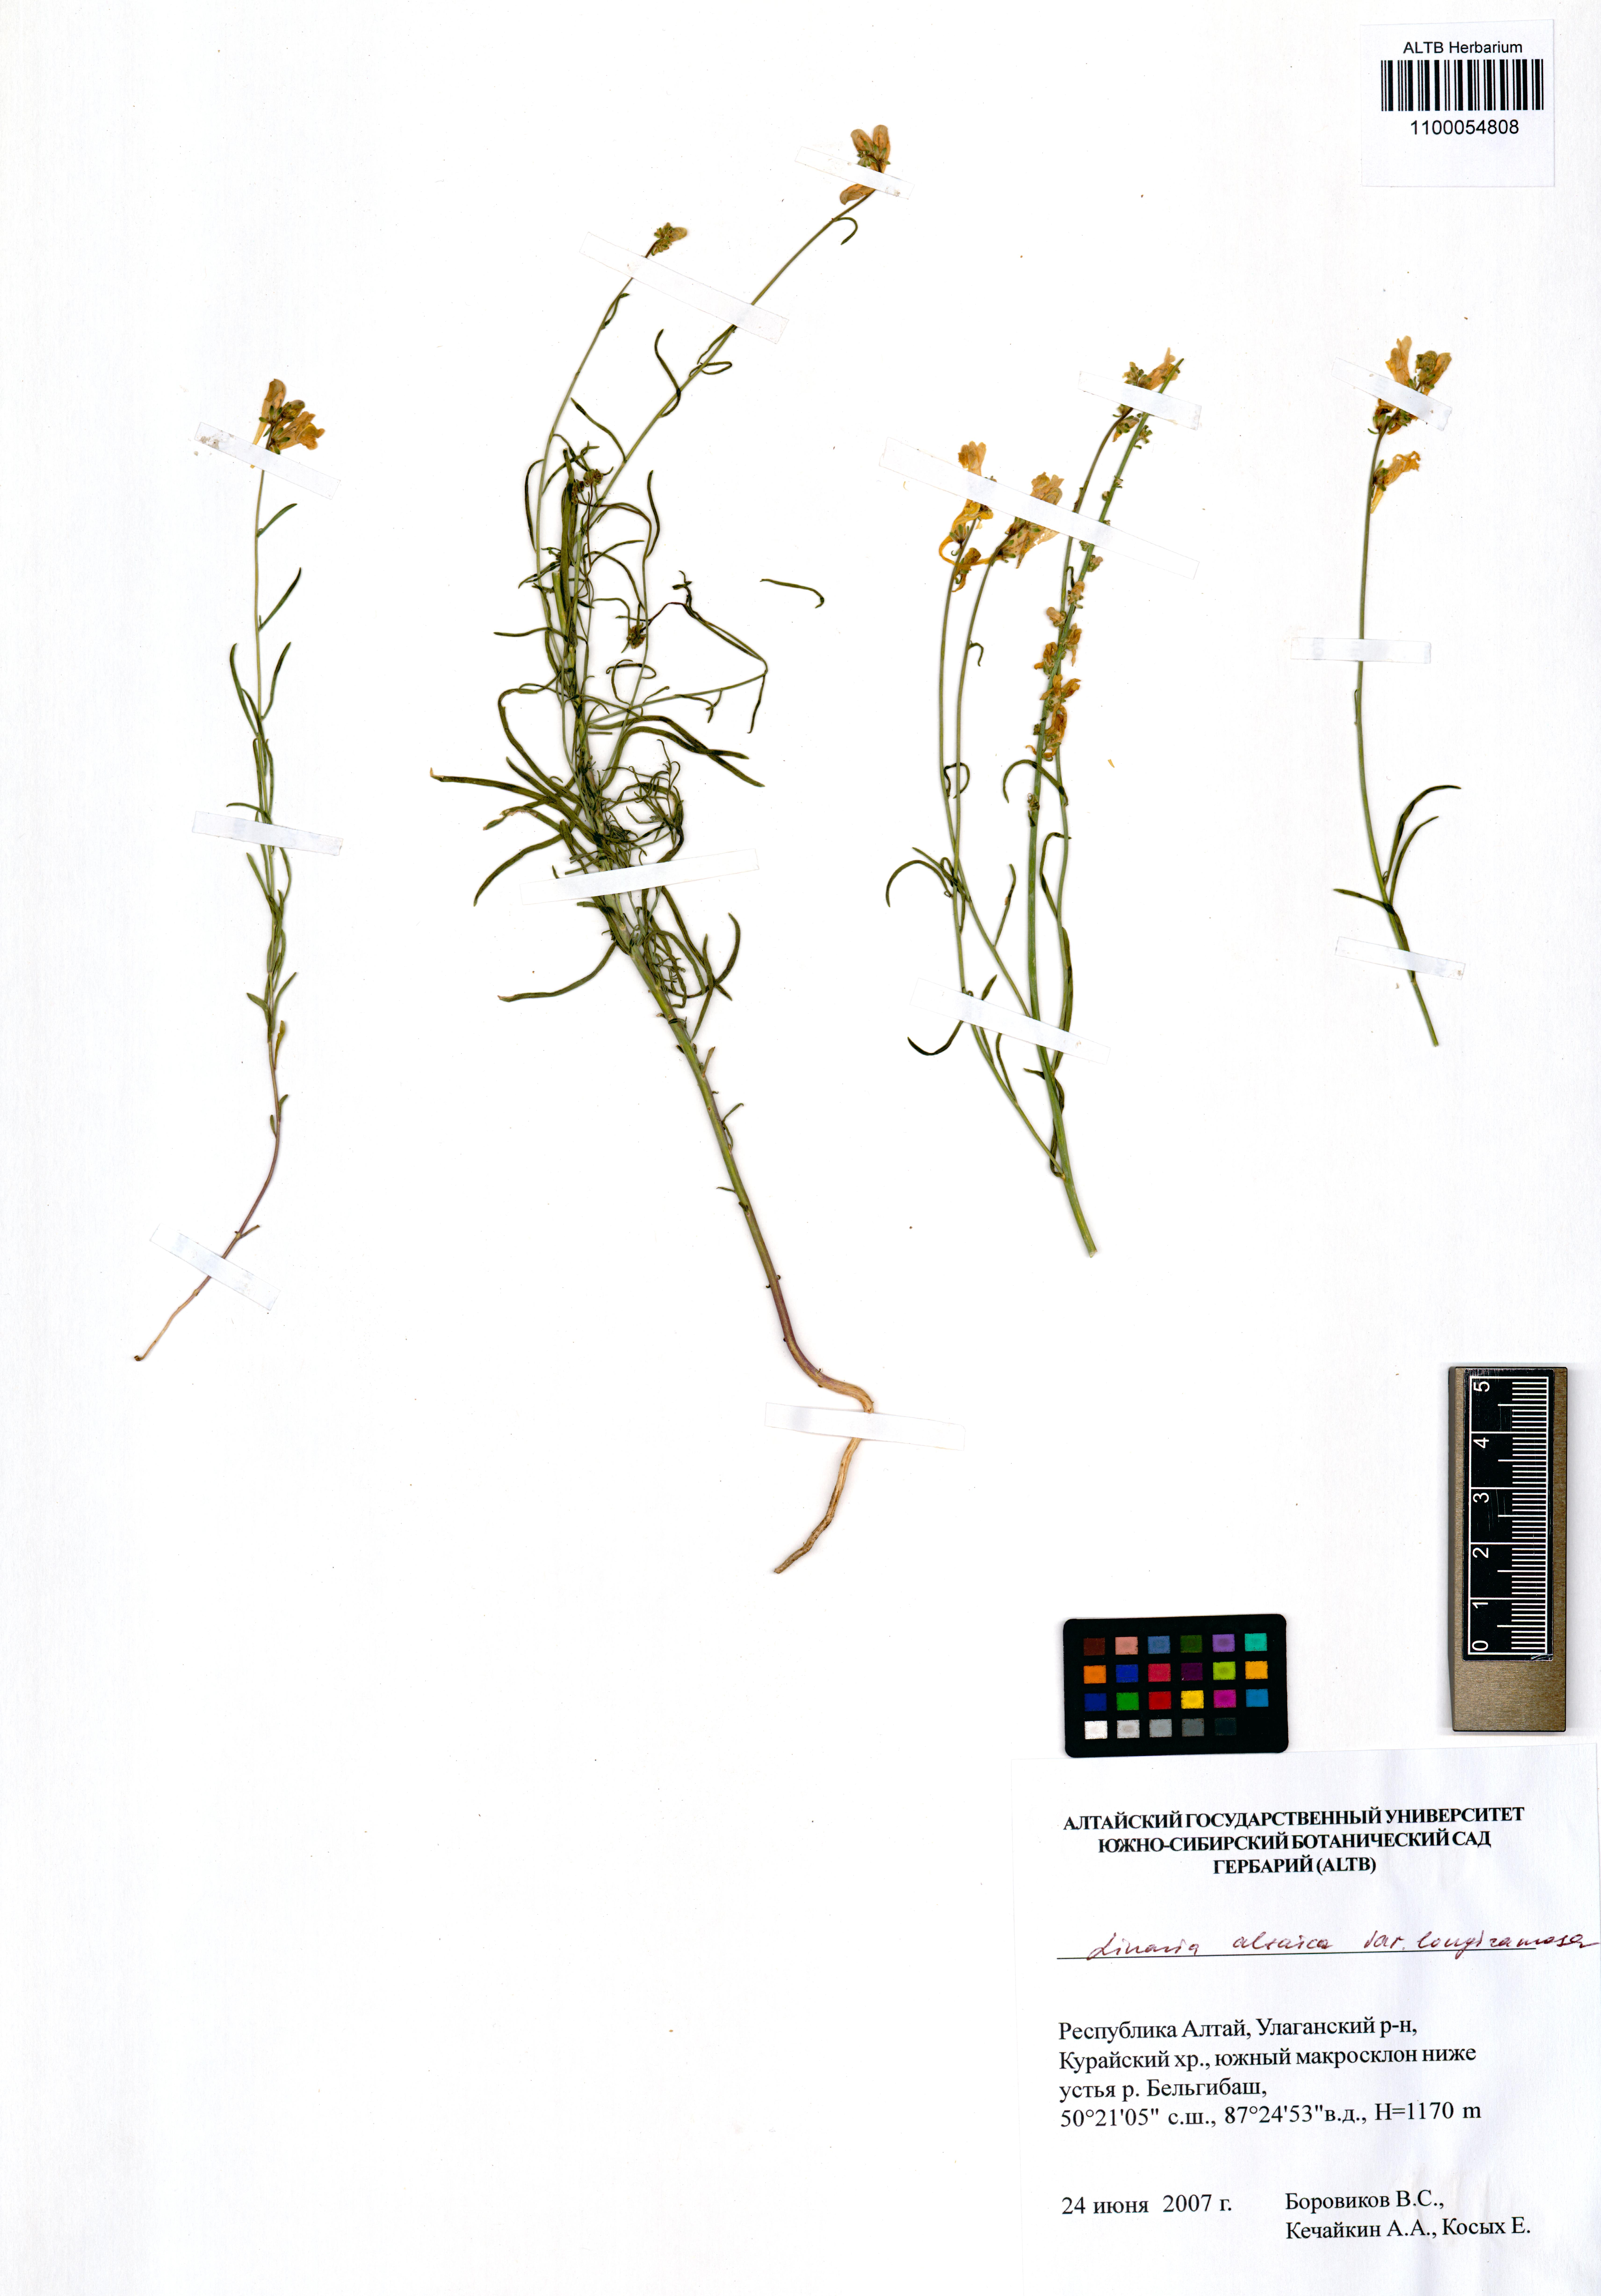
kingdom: Plantae
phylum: Tracheophyta
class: Magnoliopsida
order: Lamiales
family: Plantaginaceae
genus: Linaria
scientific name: Linaria altaica
